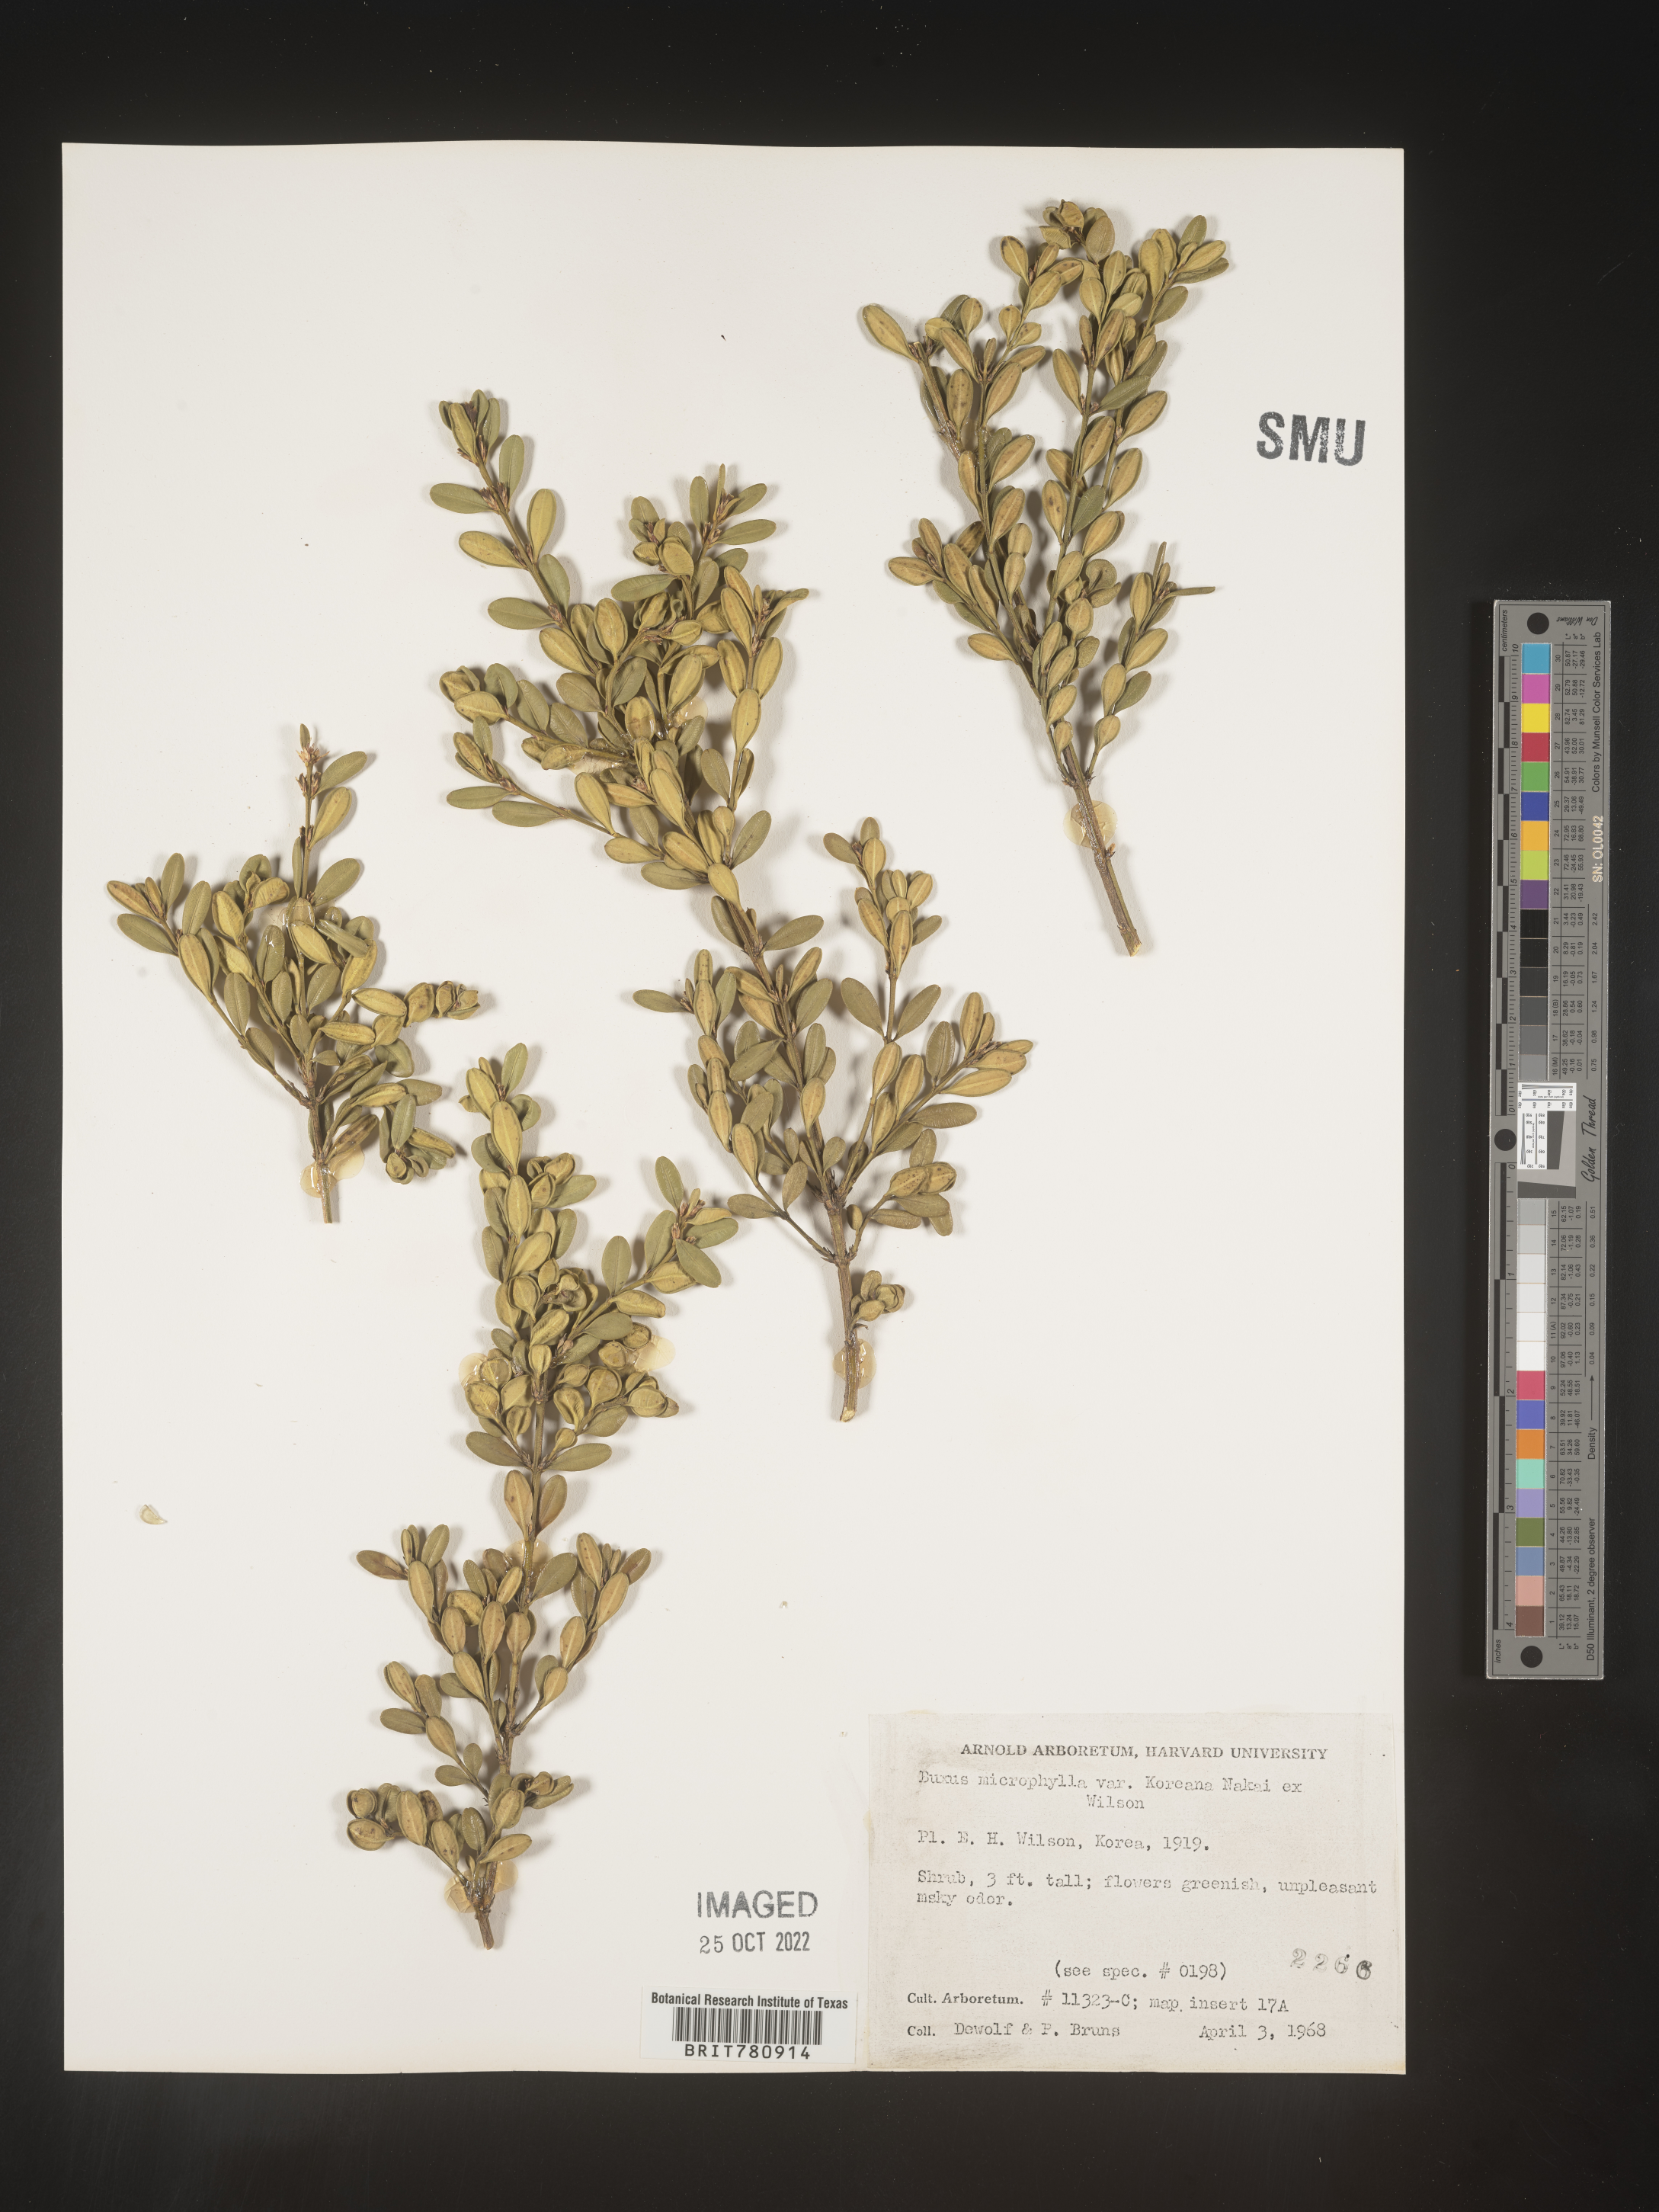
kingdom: Plantae
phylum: Tracheophyta
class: Magnoliopsida
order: Buxales
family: Buxaceae
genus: Buxus
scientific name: Buxus
